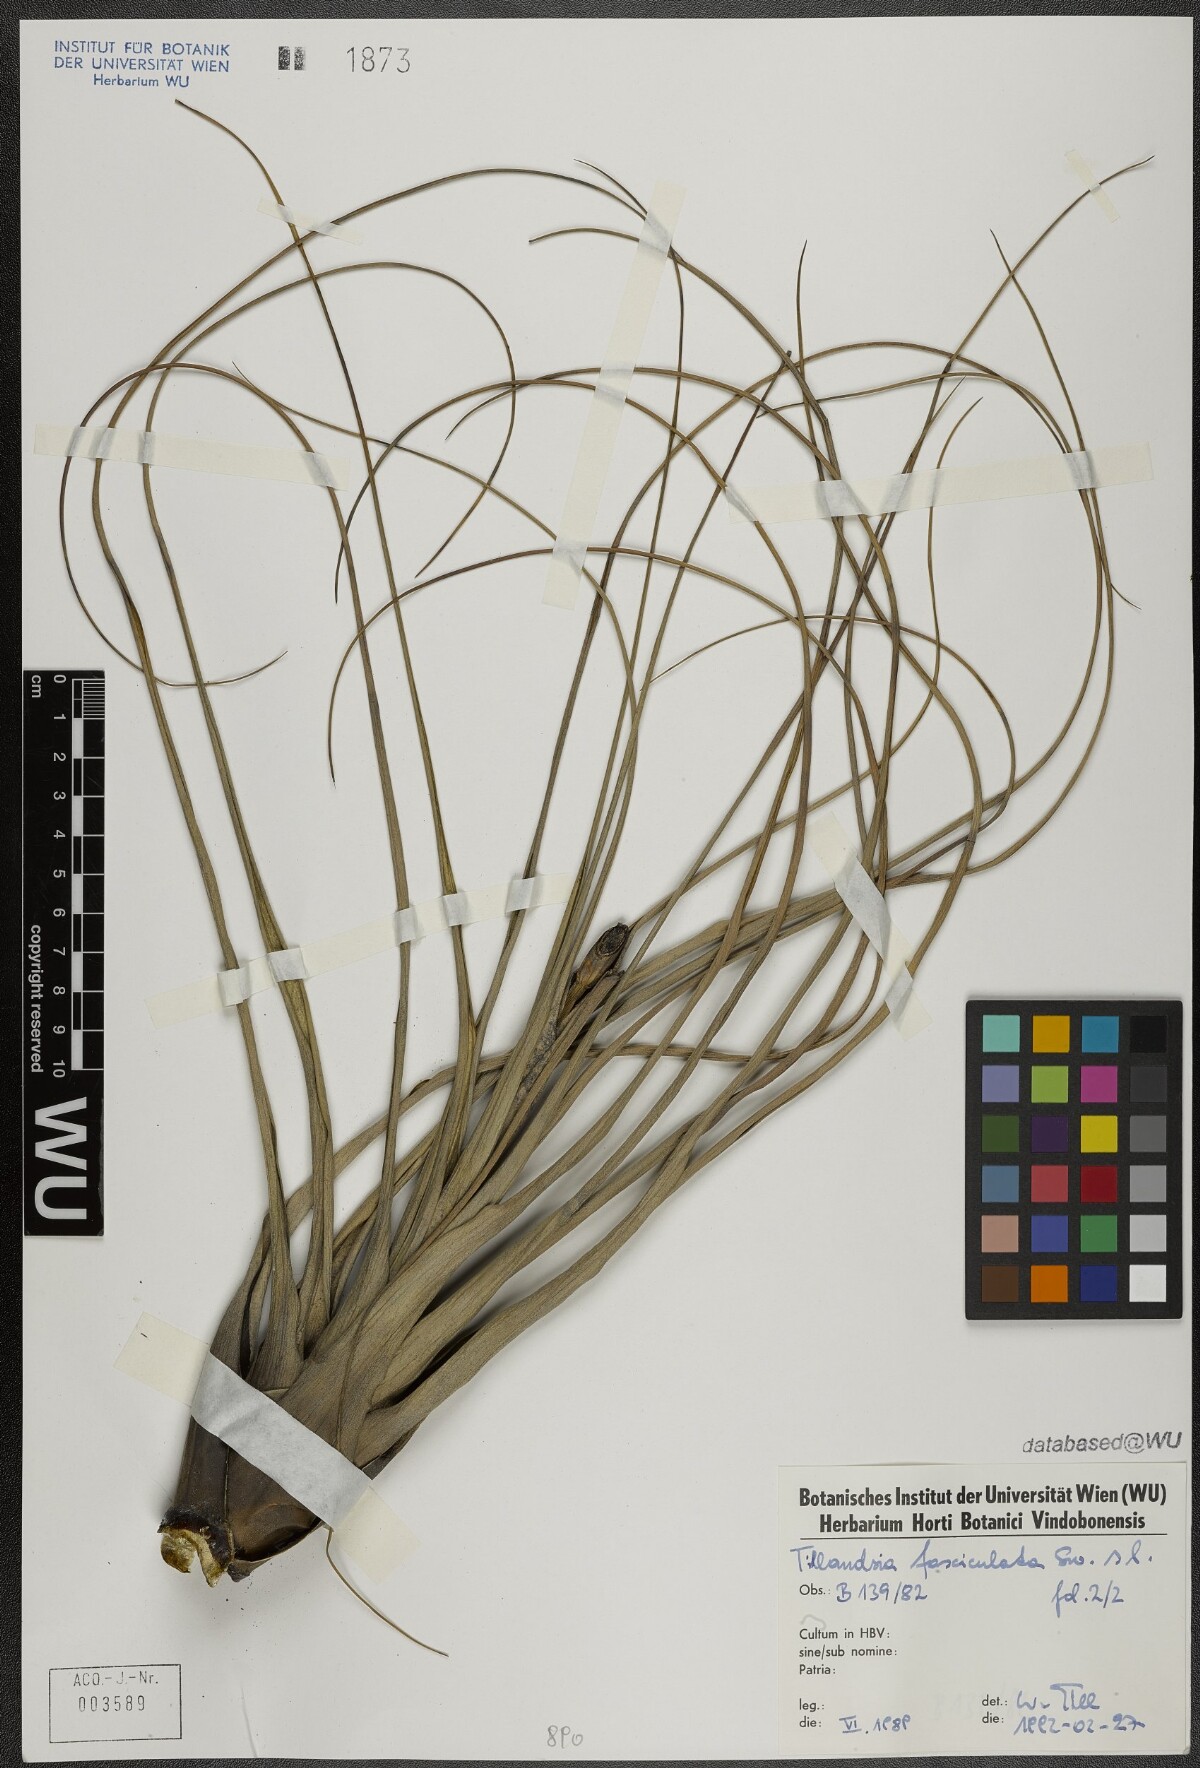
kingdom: Plantae
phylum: Tracheophyta
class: Liliopsida
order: Poales
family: Bromeliaceae
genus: Tillandsia
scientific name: Tillandsia fasciculata
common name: Giant airplant
